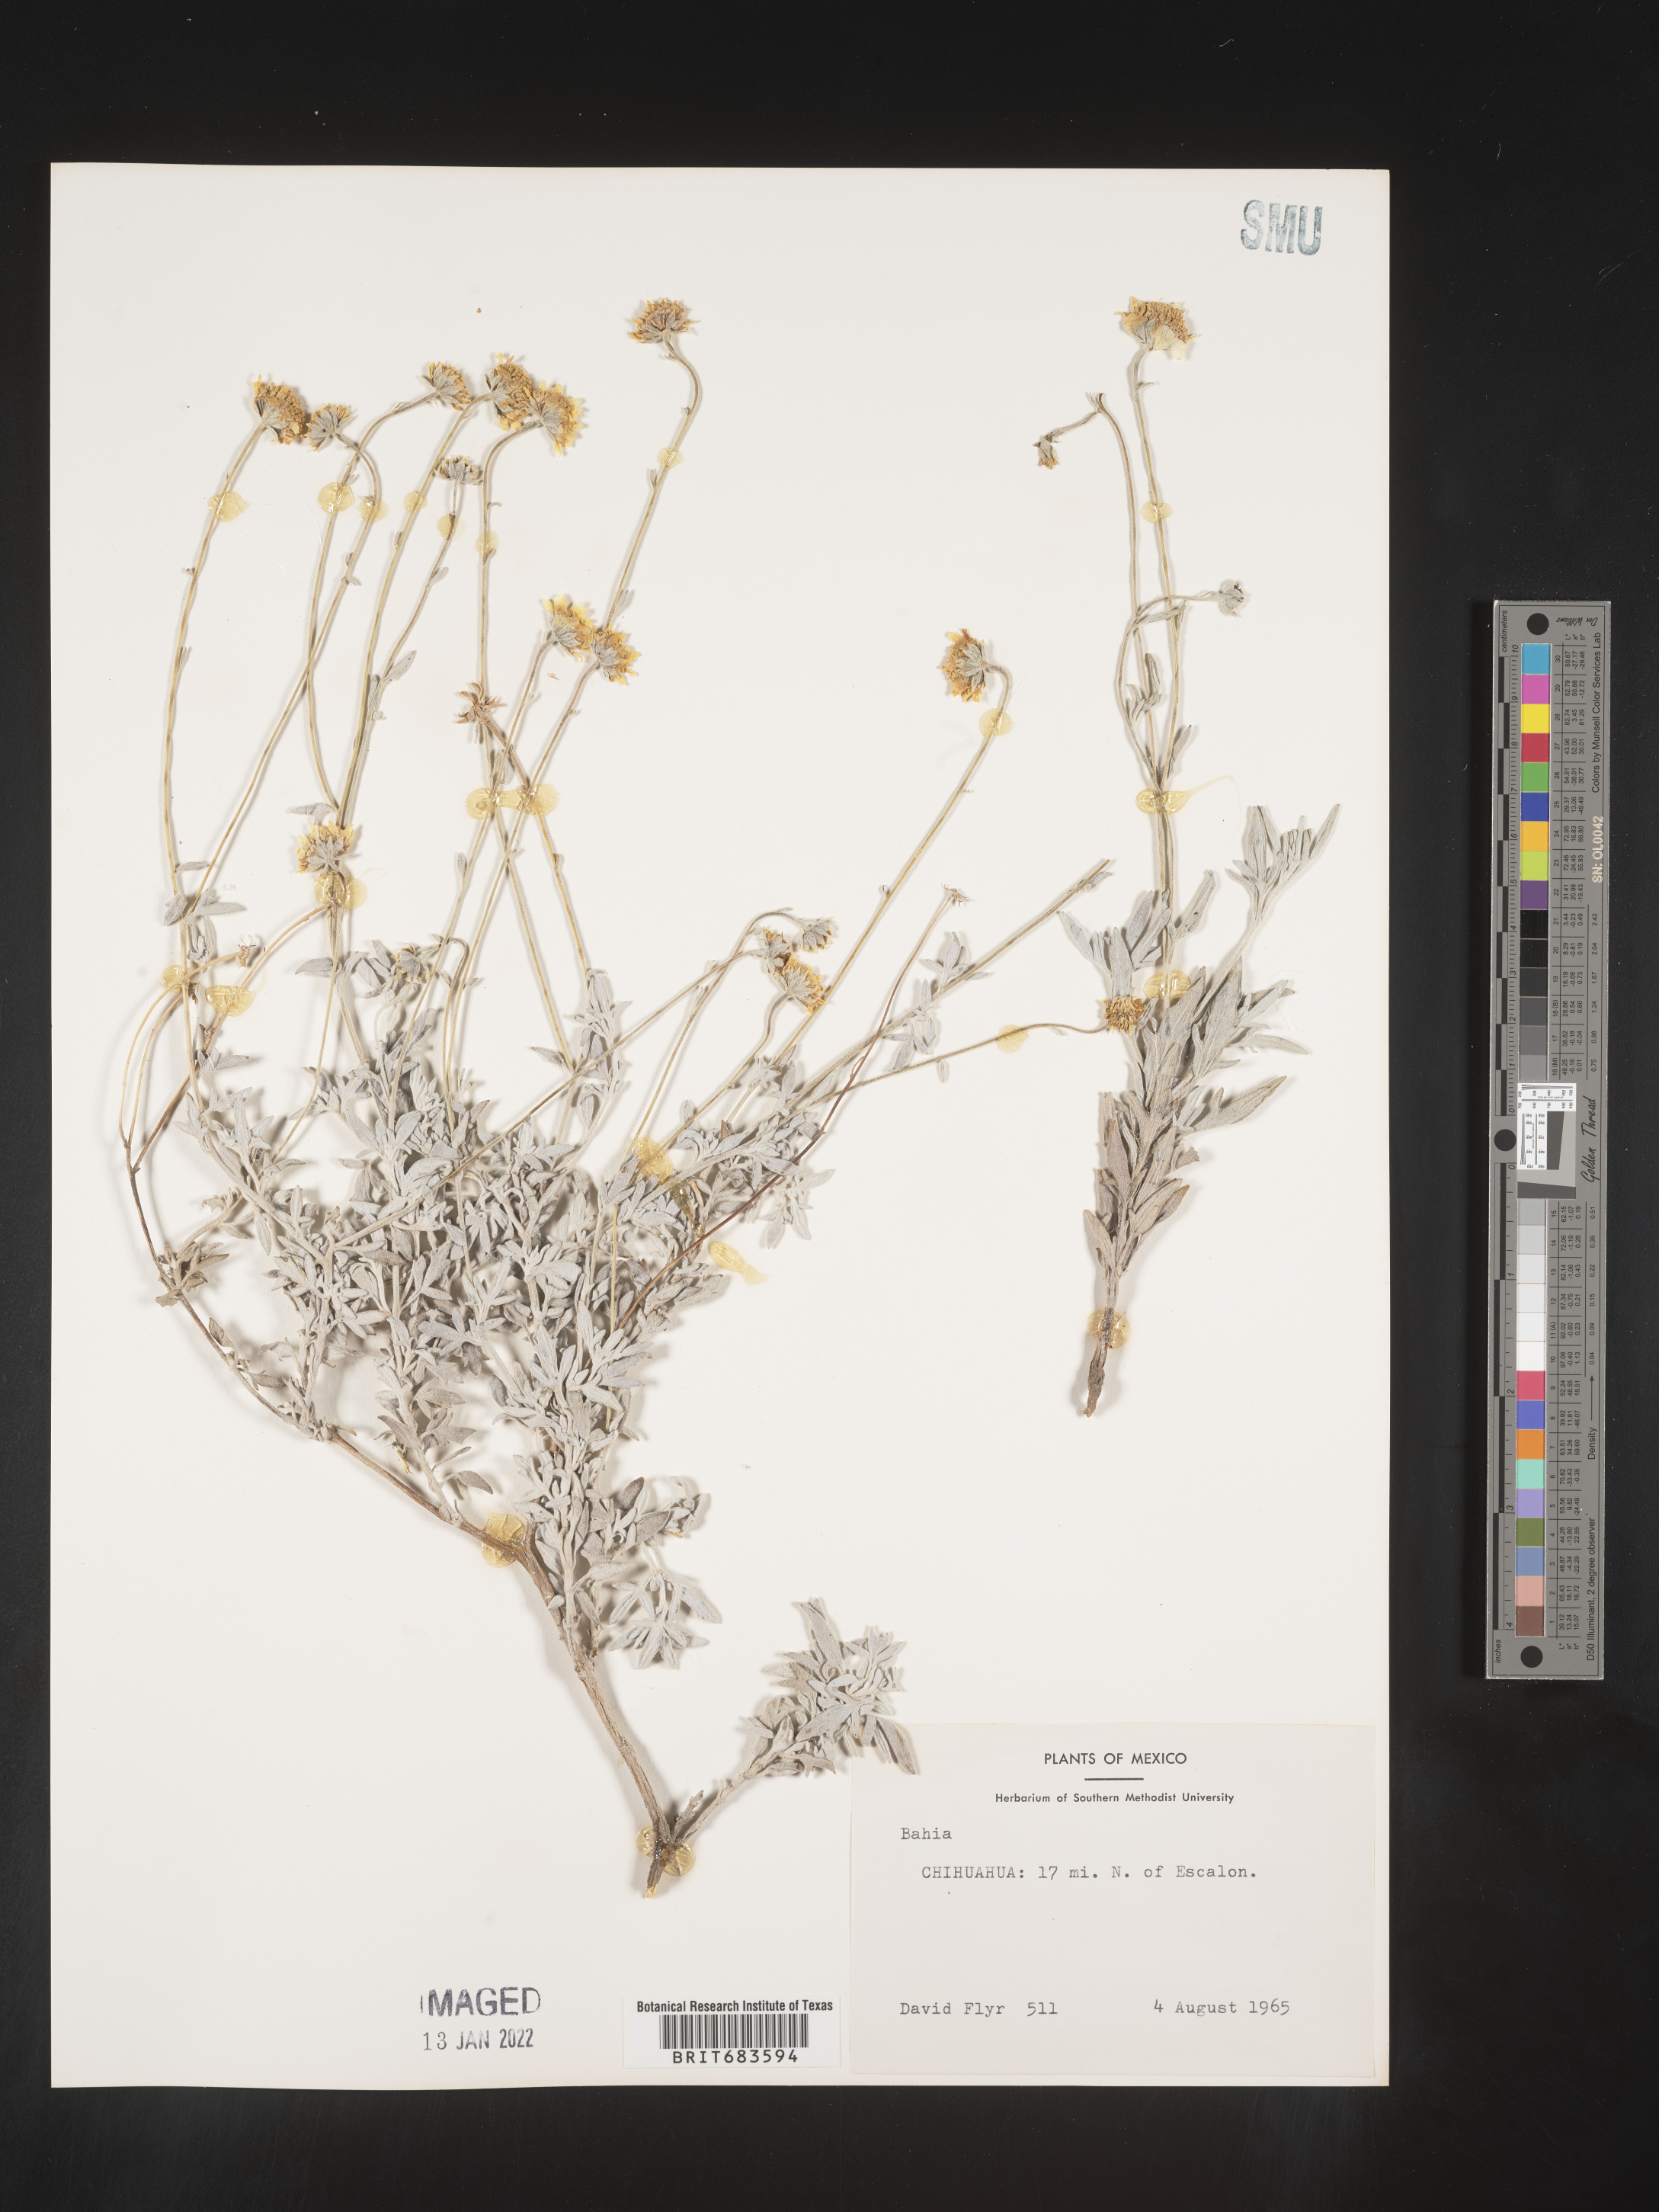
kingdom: Plantae
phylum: Tracheophyta
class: Magnoliopsida
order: Asterales
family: Asteraceae
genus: Bahia
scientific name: Bahia
